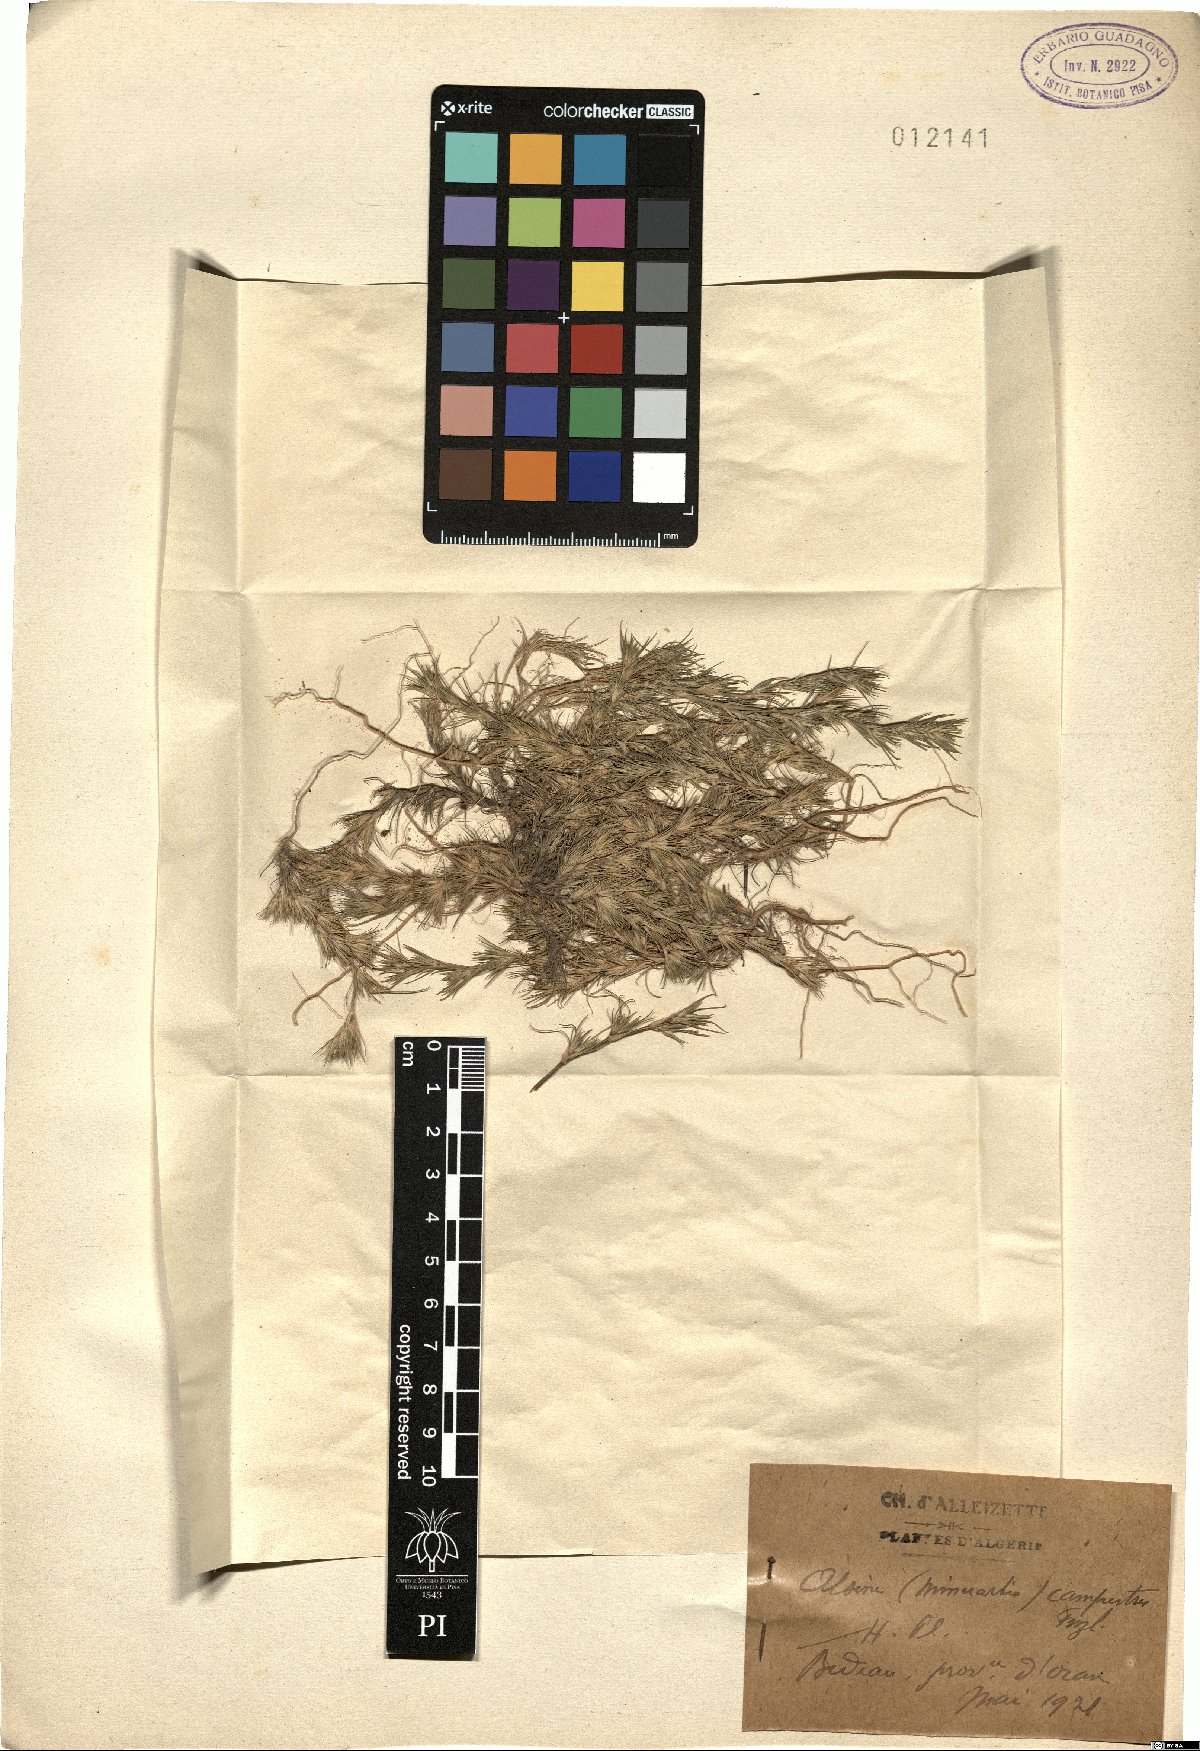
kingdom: Plantae
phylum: Tracheophyta
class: Magnoliopsida
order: Caryophyllales
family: Caryophyllaceae
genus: Minuartia
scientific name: Minuartia campestris
